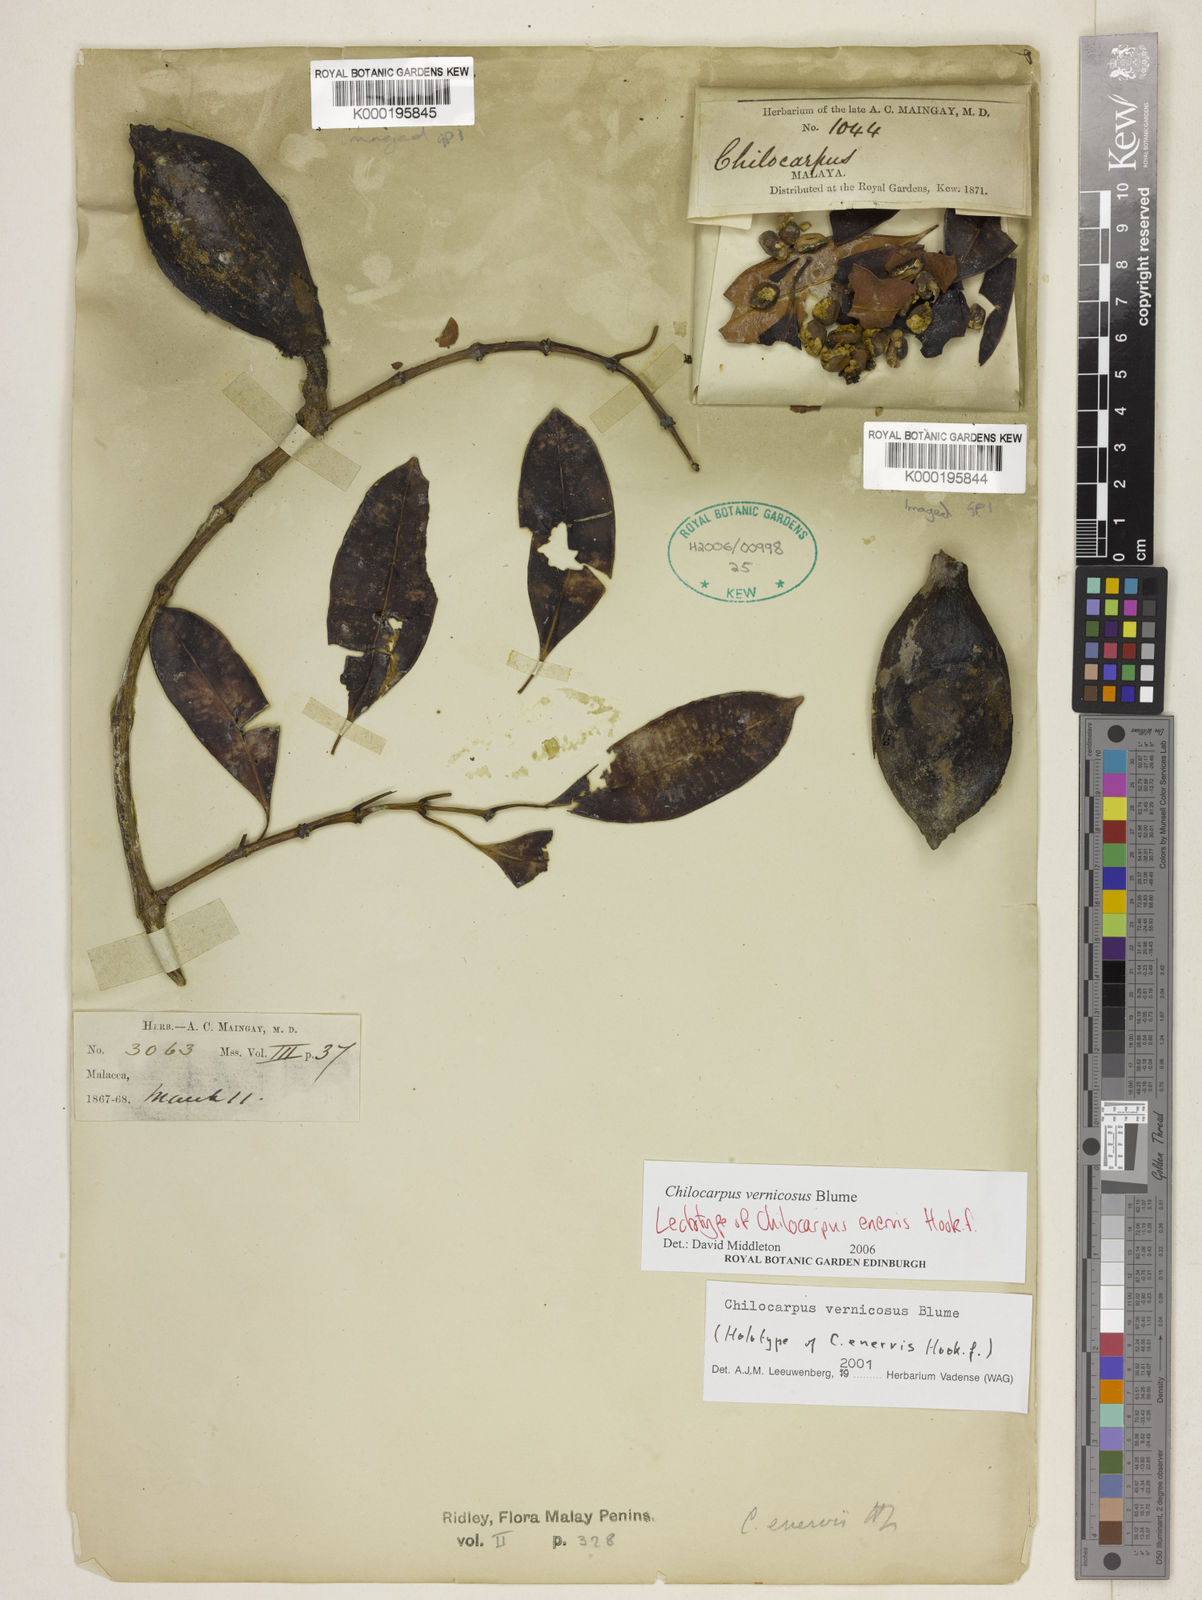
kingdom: Plantae
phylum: Tracheophyta
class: Magnoliopsida
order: Gentianales
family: Apocynaceae
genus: Chilocarpus
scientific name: Chilocarpus vernicosus
